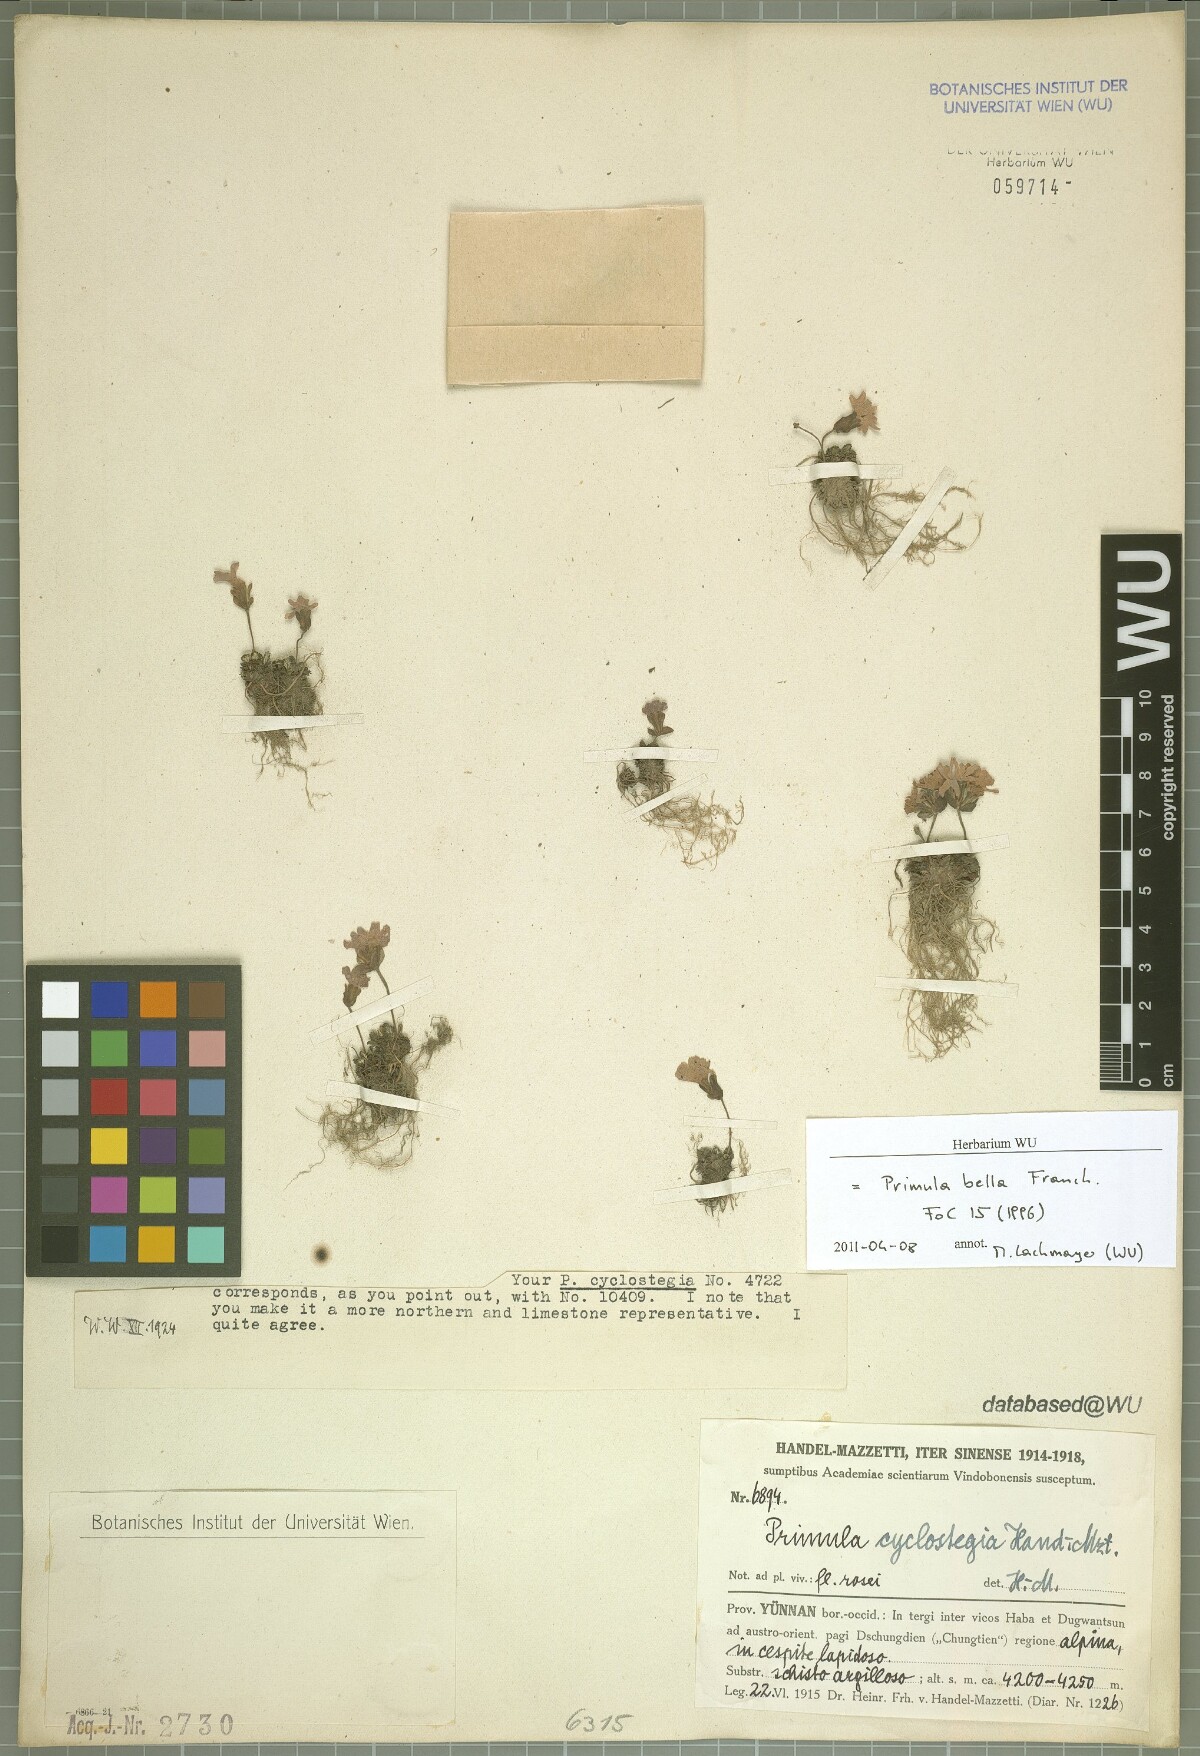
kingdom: Plantae
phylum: Tracheophyta
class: Magnoliopsida
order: Ericales
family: Primulaceae
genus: Primula
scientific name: Primula bella
